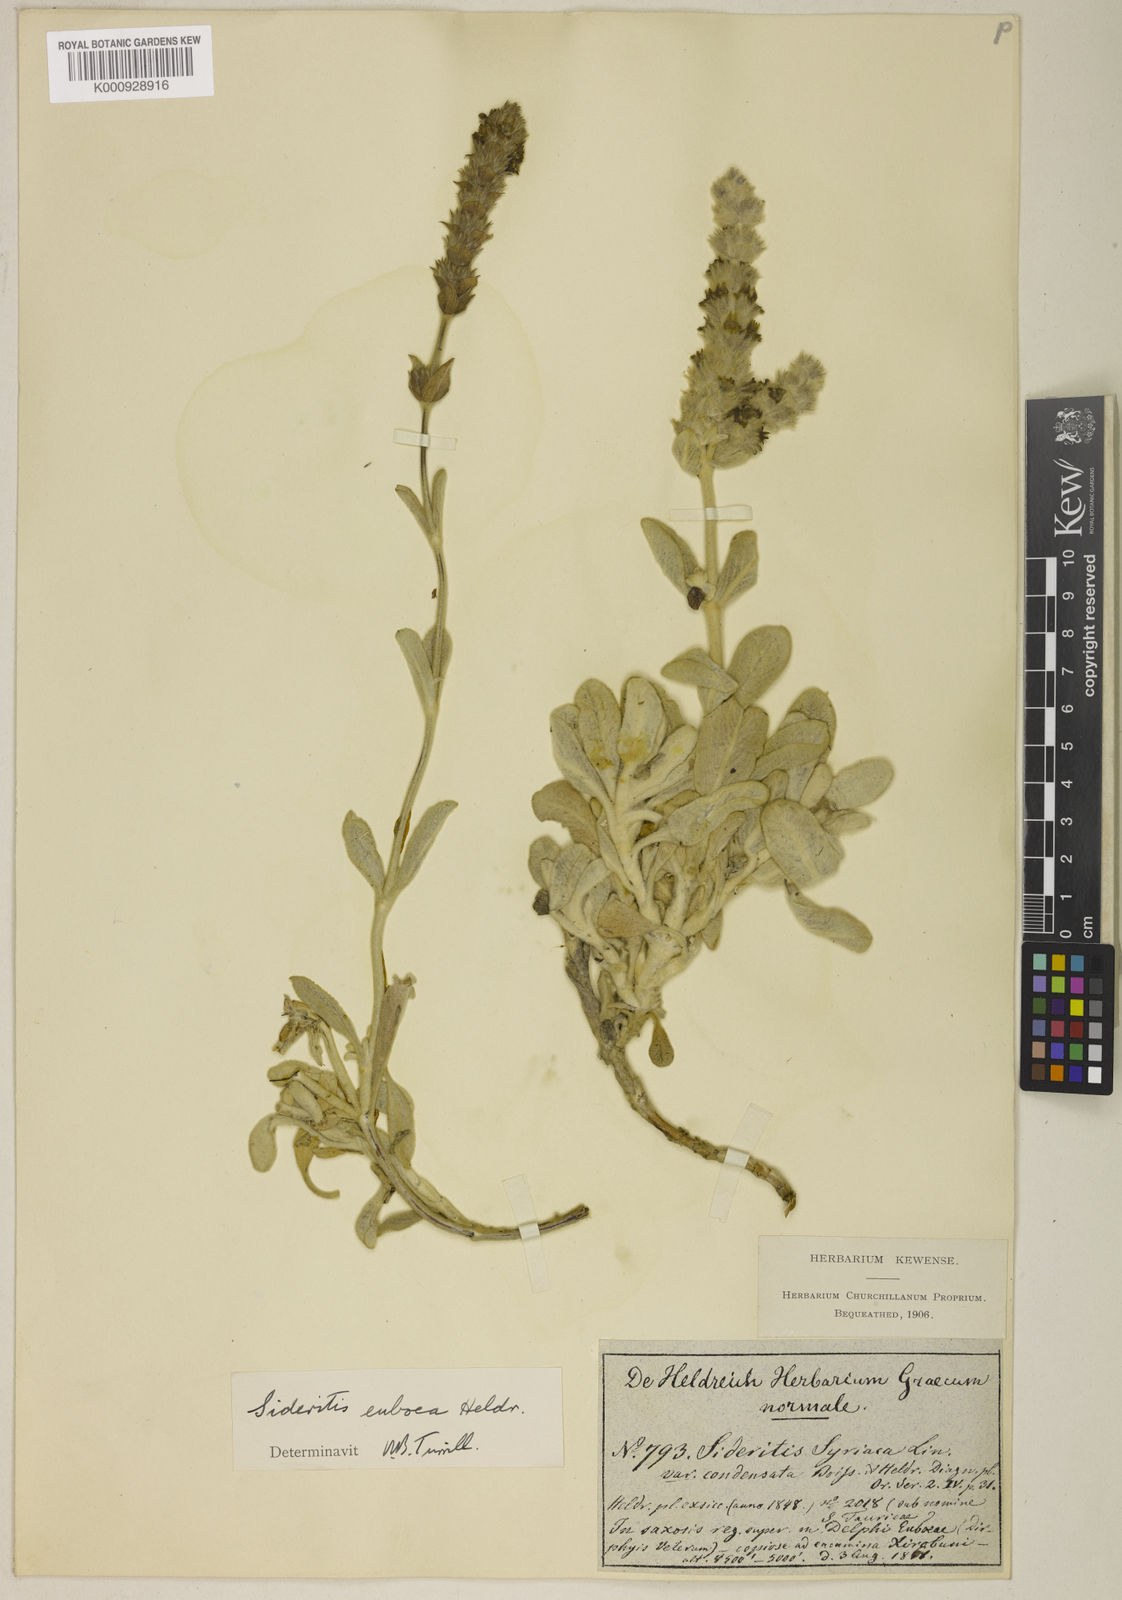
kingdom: Plantae
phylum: Tracheophyta
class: Magnoliopsida
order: Lamiales
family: Lamiaceae
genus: Sideritis
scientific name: Sideritis syriaca
